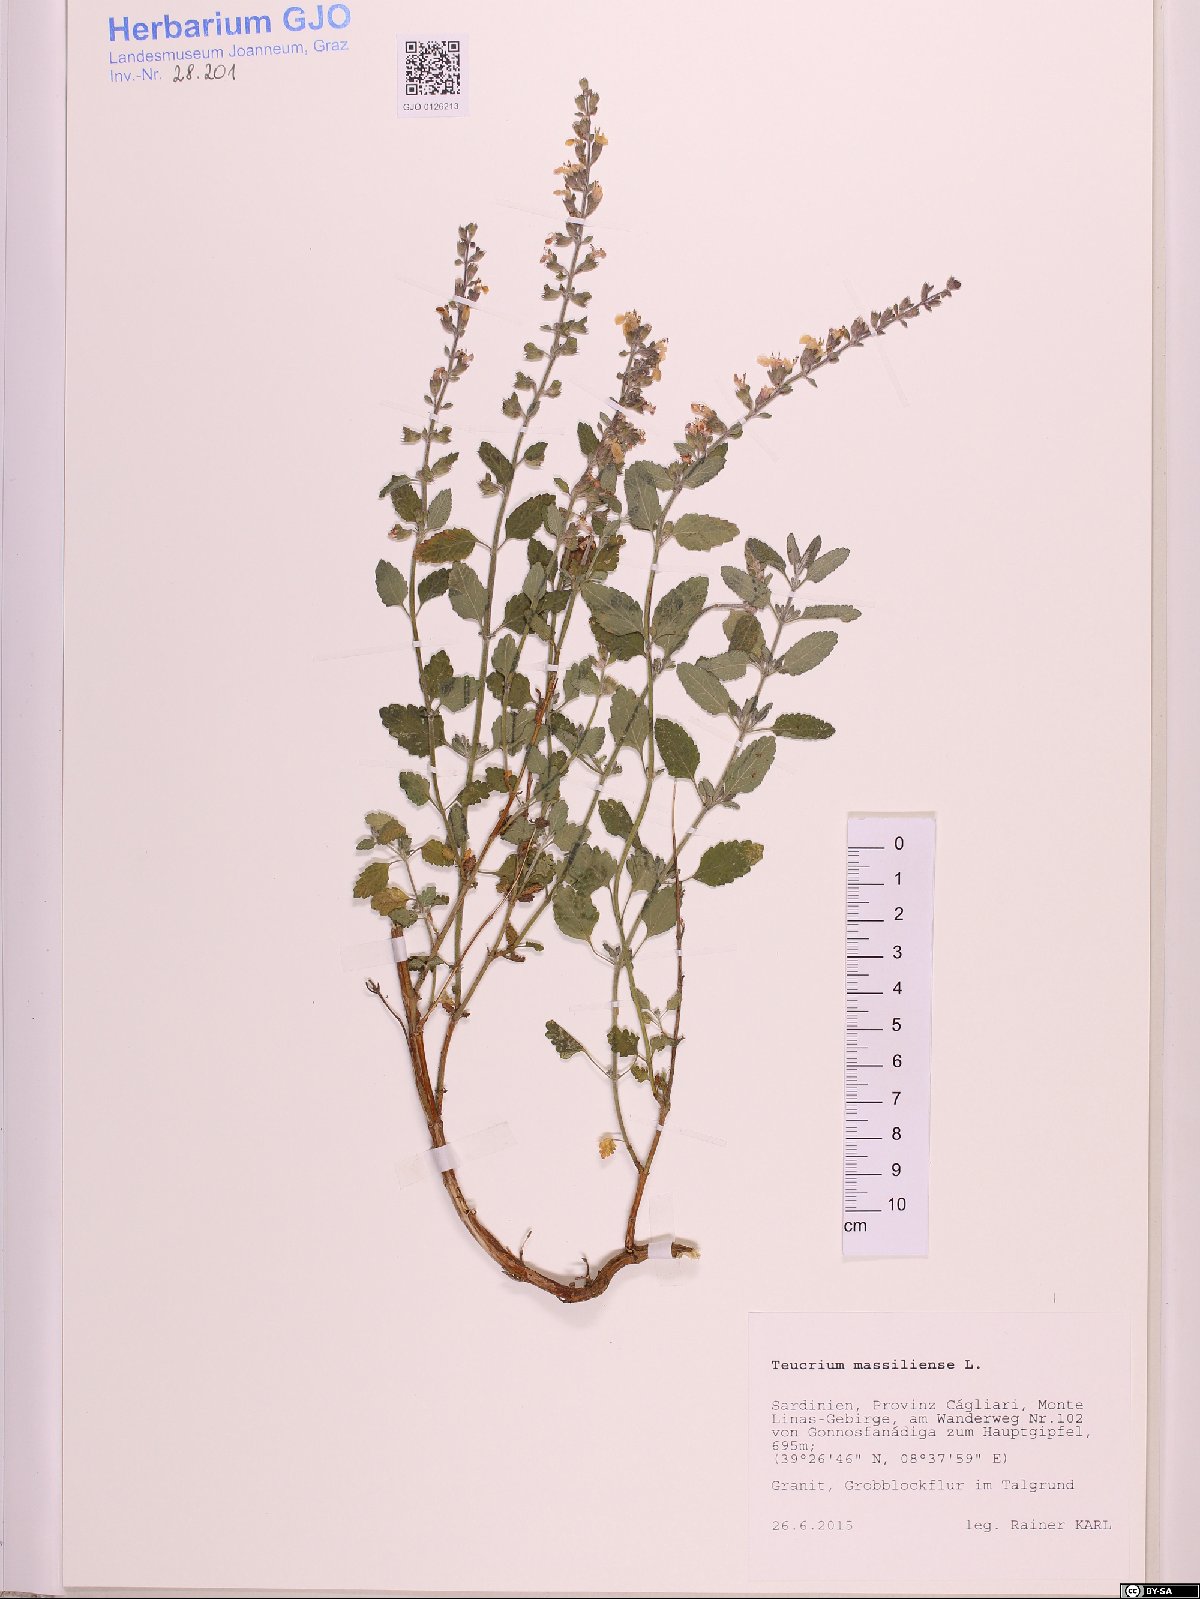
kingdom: Plantae
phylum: Tracheophyta
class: Magnoliopsida
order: Lamiales
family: Lamiaceae
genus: Teucrium
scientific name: Teucrium massiliense
